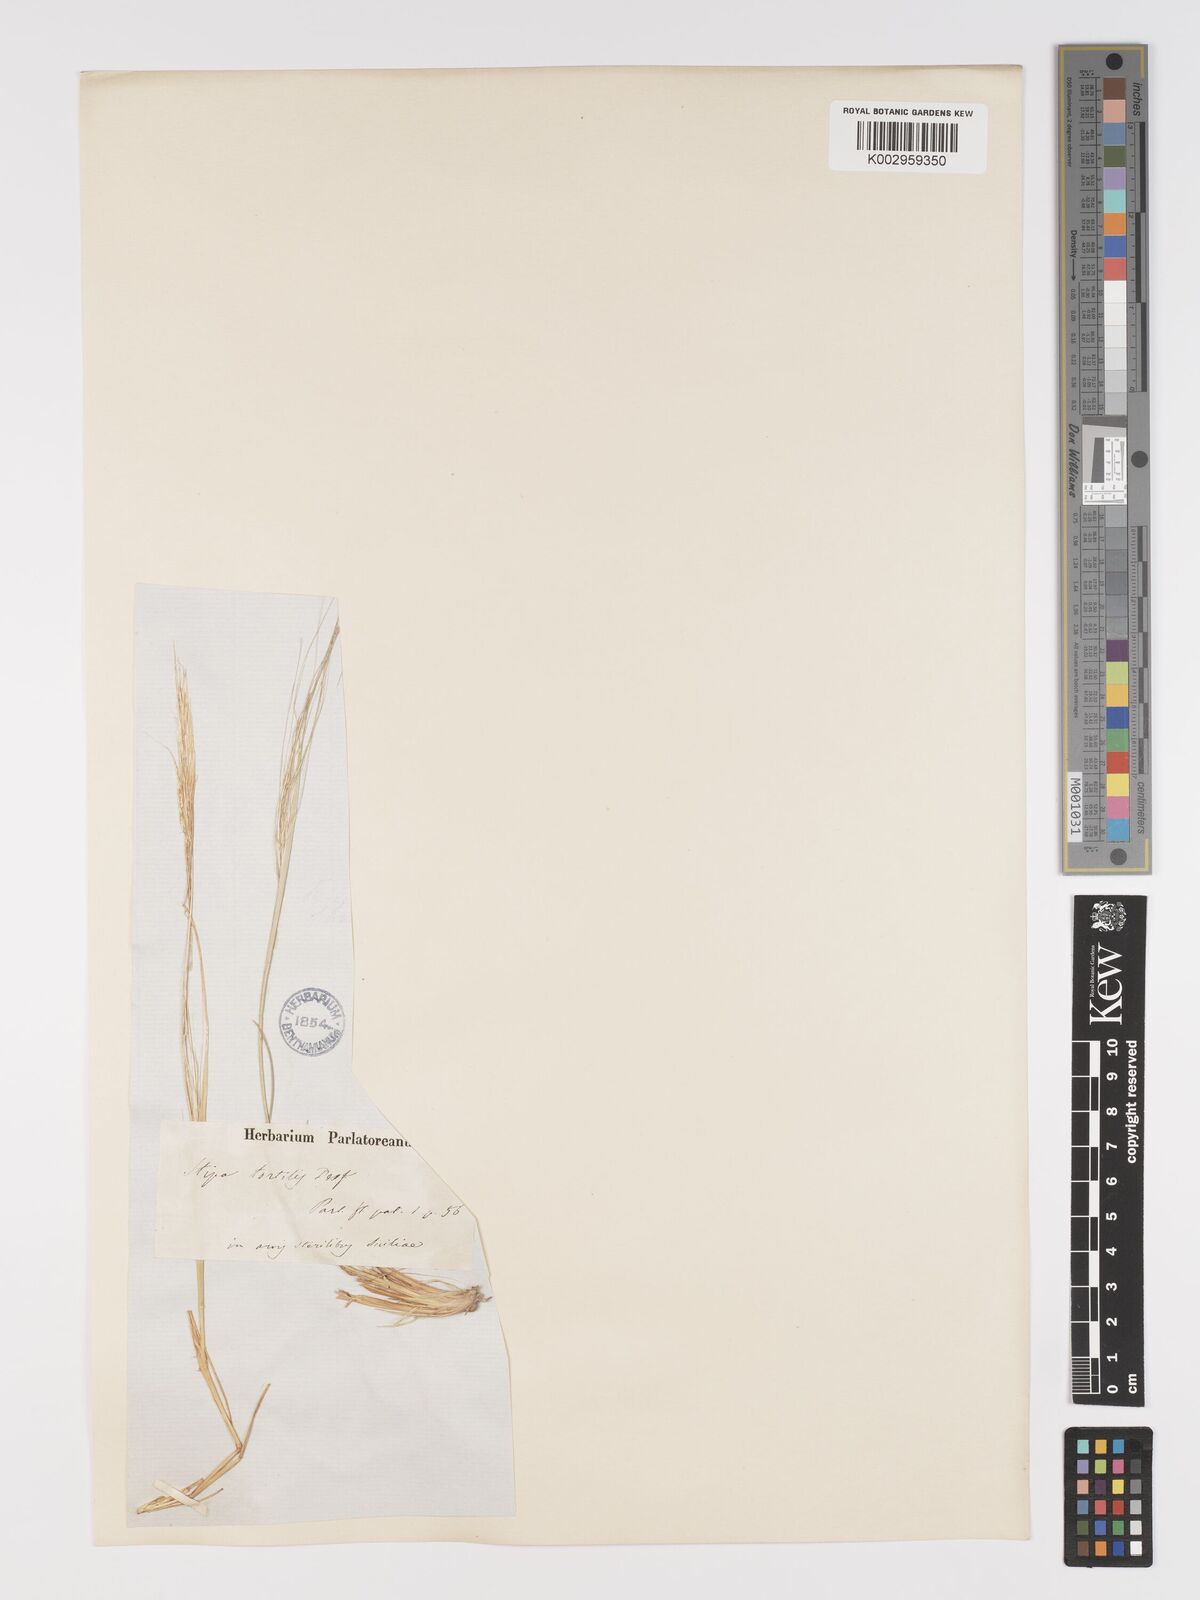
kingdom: Plantae
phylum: Tracheophyta
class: Liliopsida
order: Poales
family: Poaceae
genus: Stipellula
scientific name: Stipellula capensis
